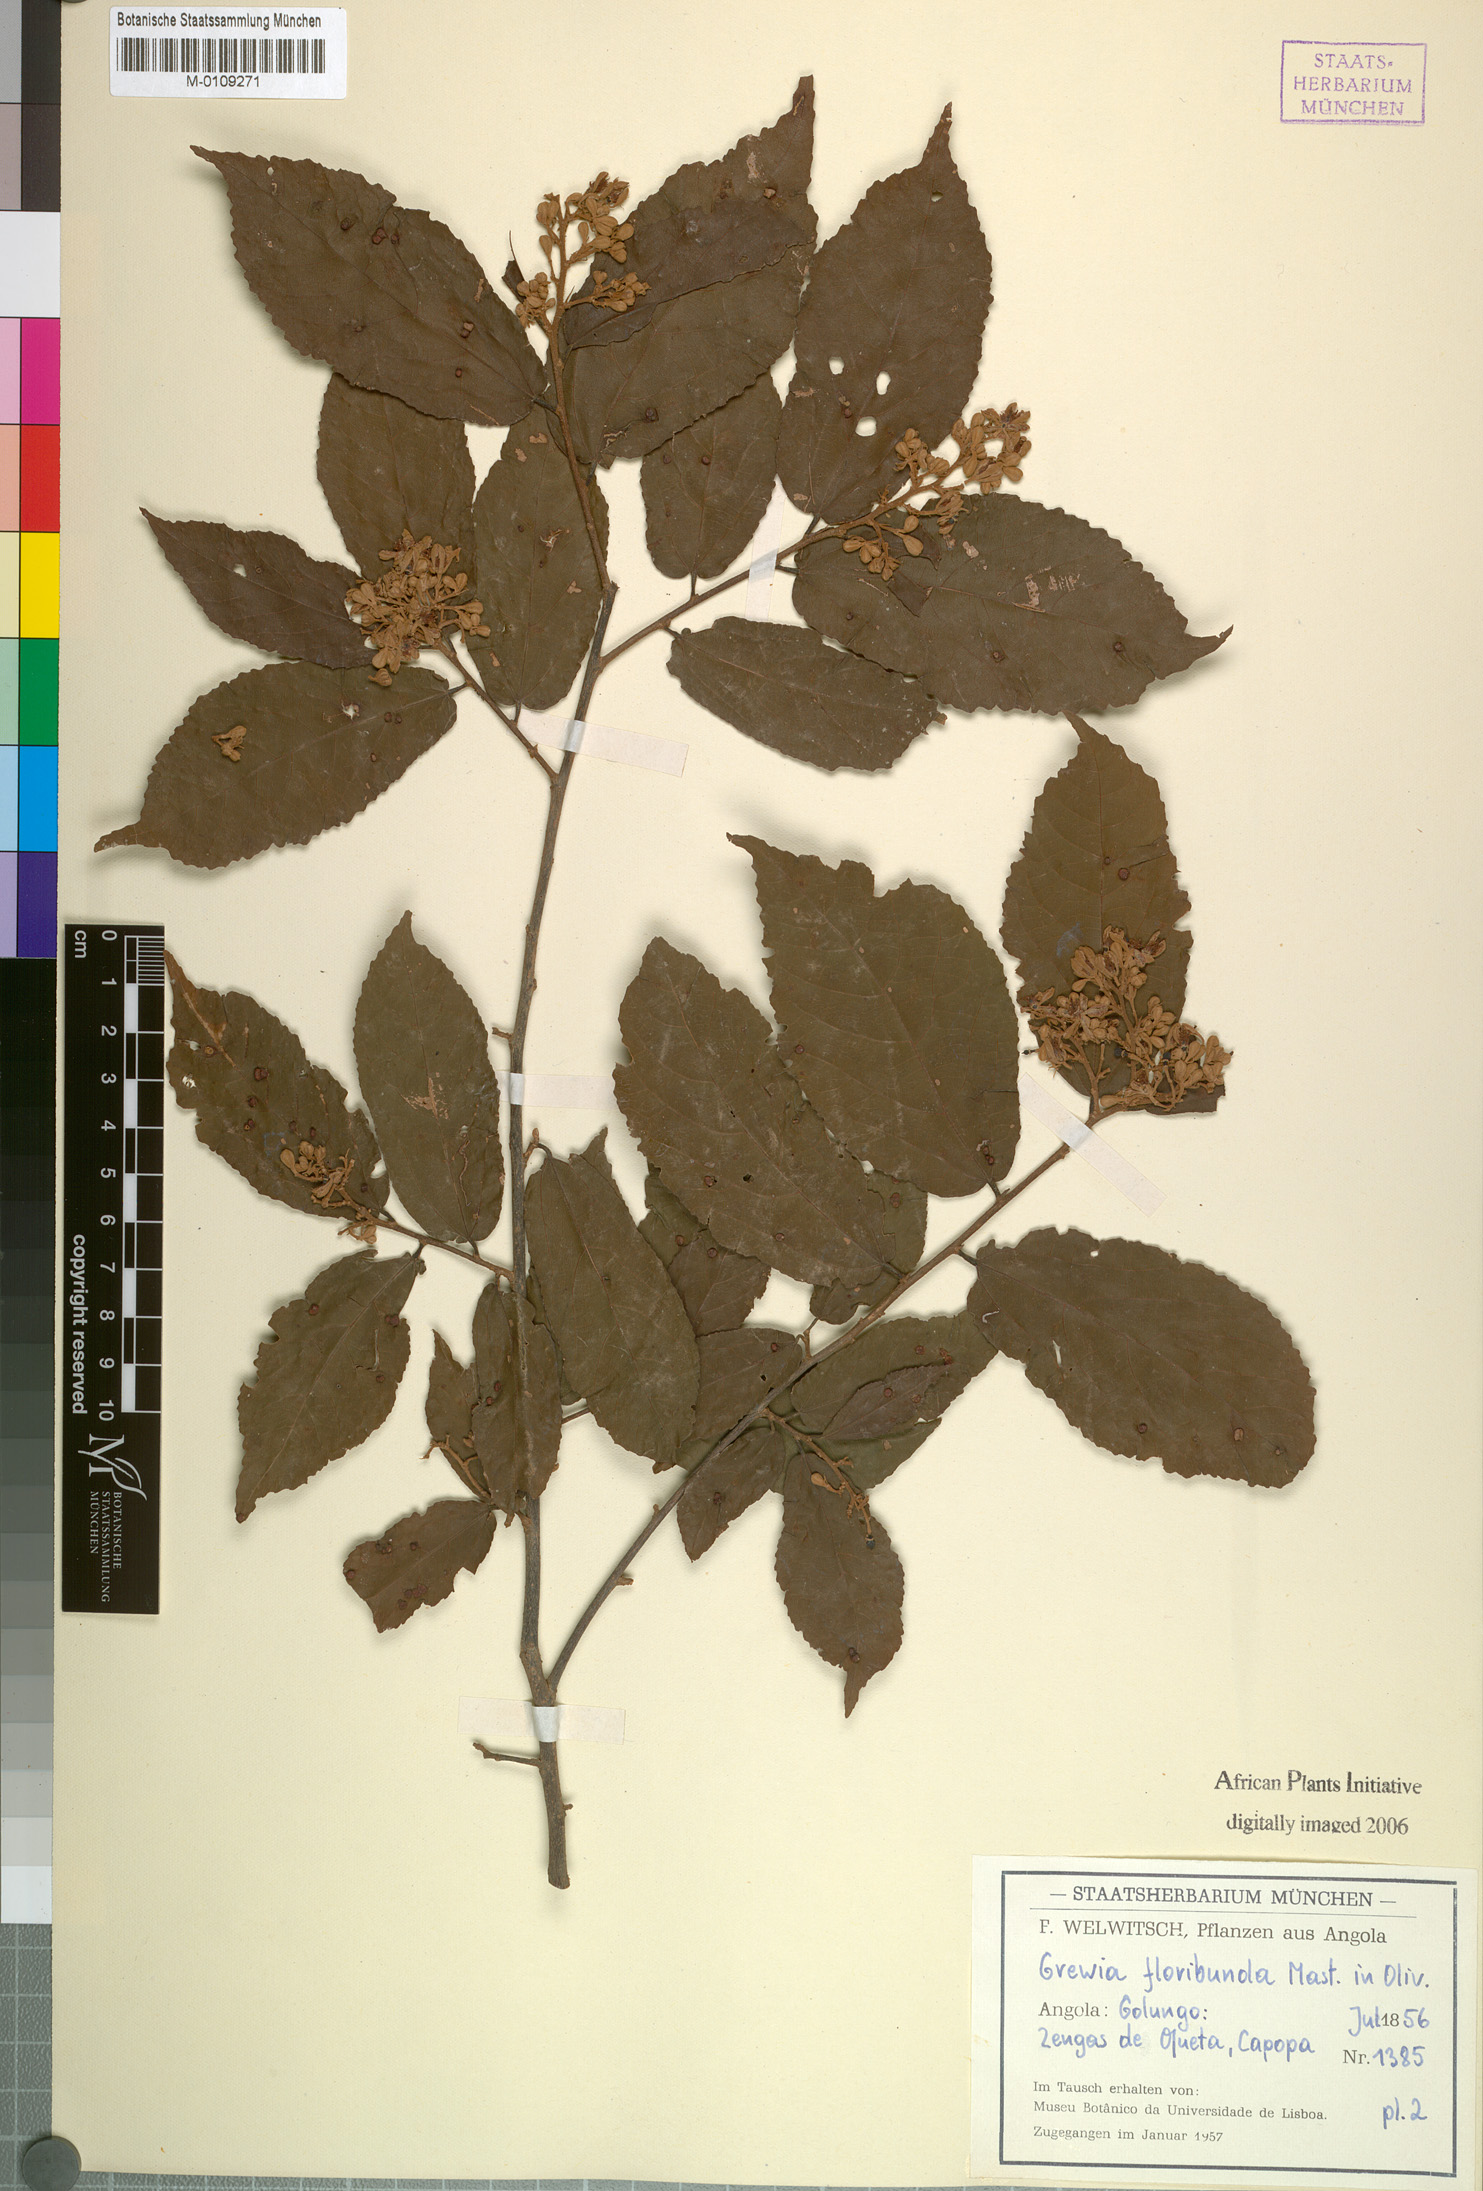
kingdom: Plantae
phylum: Tracheophyta
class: Magnoliopsida
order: Malvales
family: Malvaceae
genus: Microcos
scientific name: Microcos floribunda
